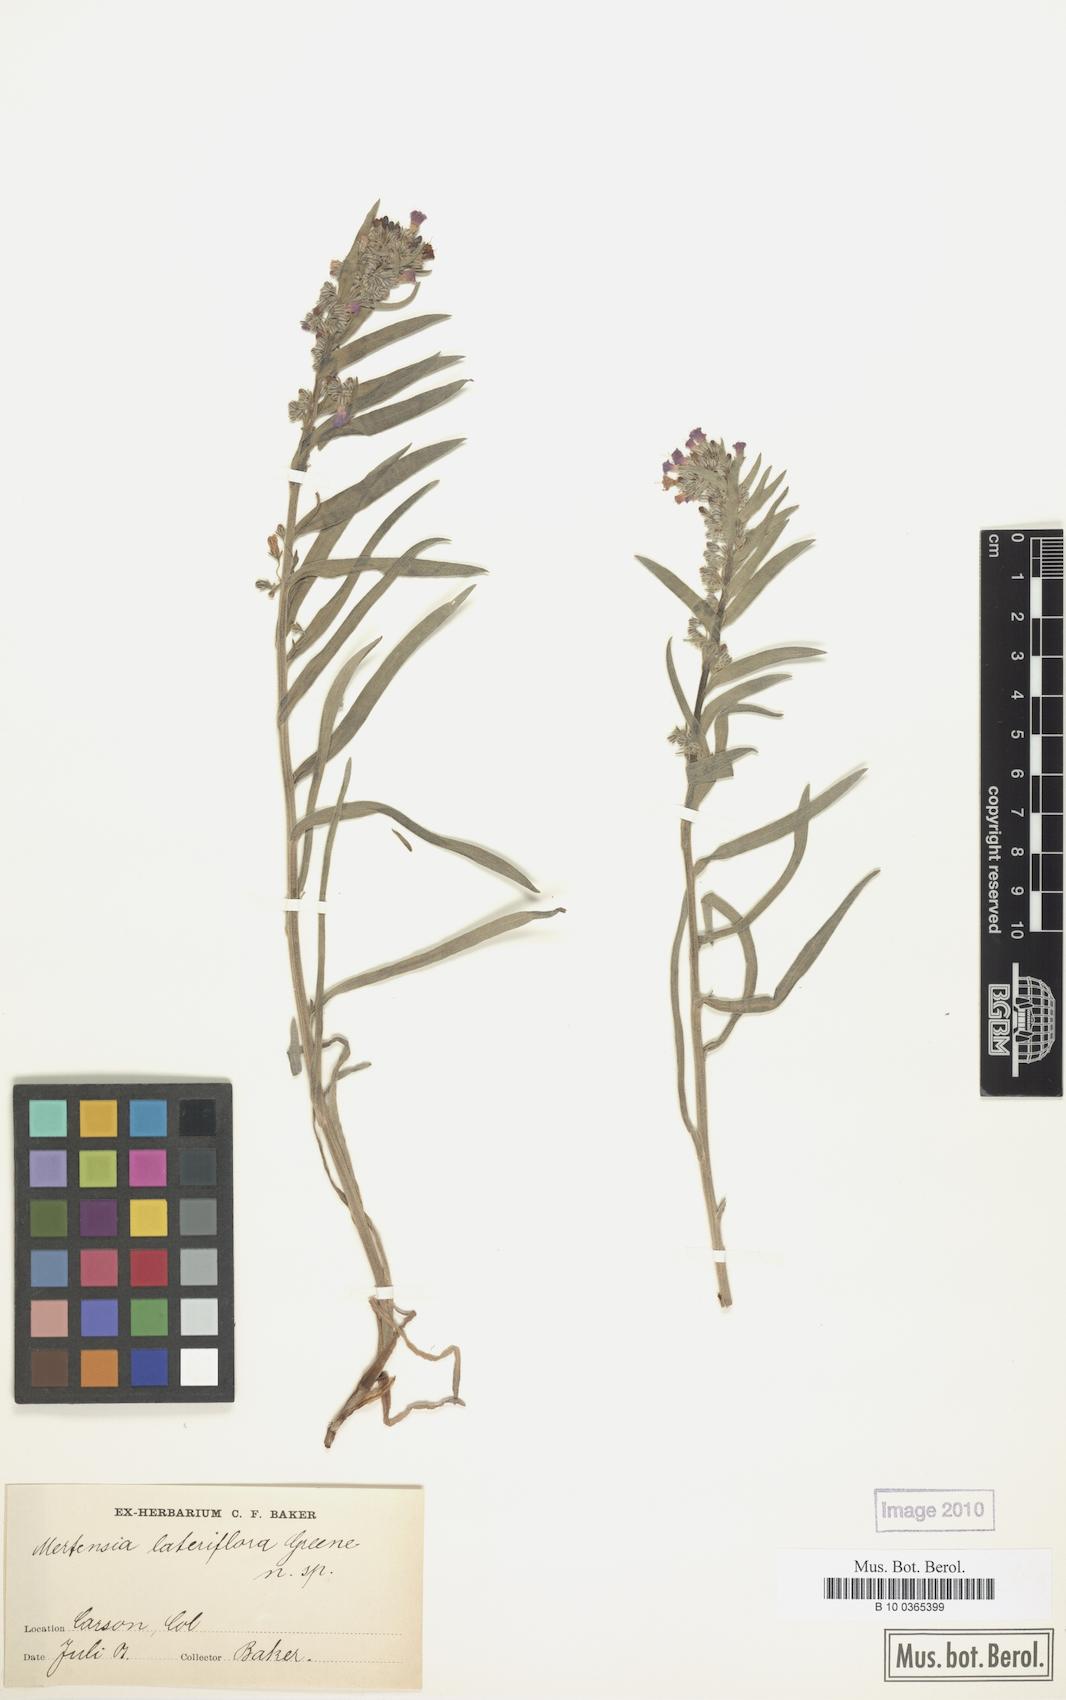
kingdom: Plantae
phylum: Tracheophyta
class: Magnoliopsida
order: Boraginales
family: Boraginaceae
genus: Mertensia
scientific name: Mertensia lateriflora
